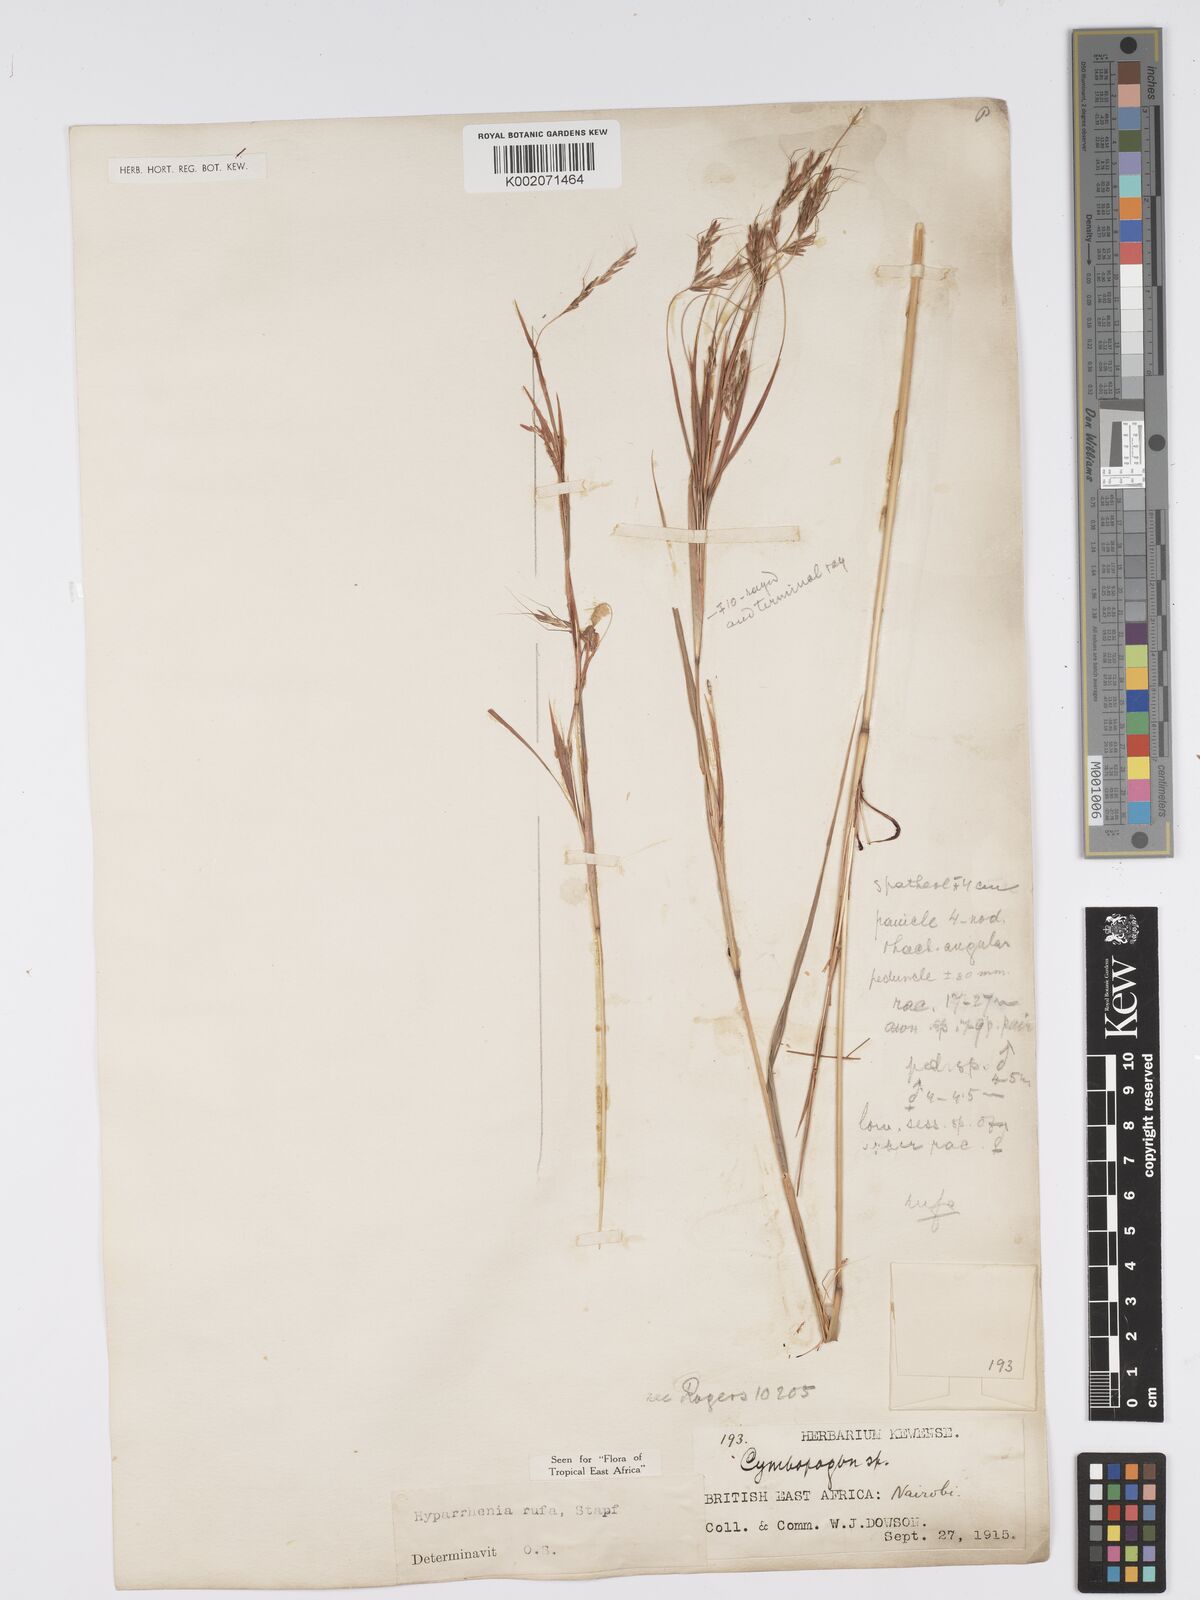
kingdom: Plantae
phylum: Tracheophyta
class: Liliopsida
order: Poales
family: Poaceae
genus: Hyparrhenia
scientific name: Hyparrhenia rufa
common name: Jaraguagrass
